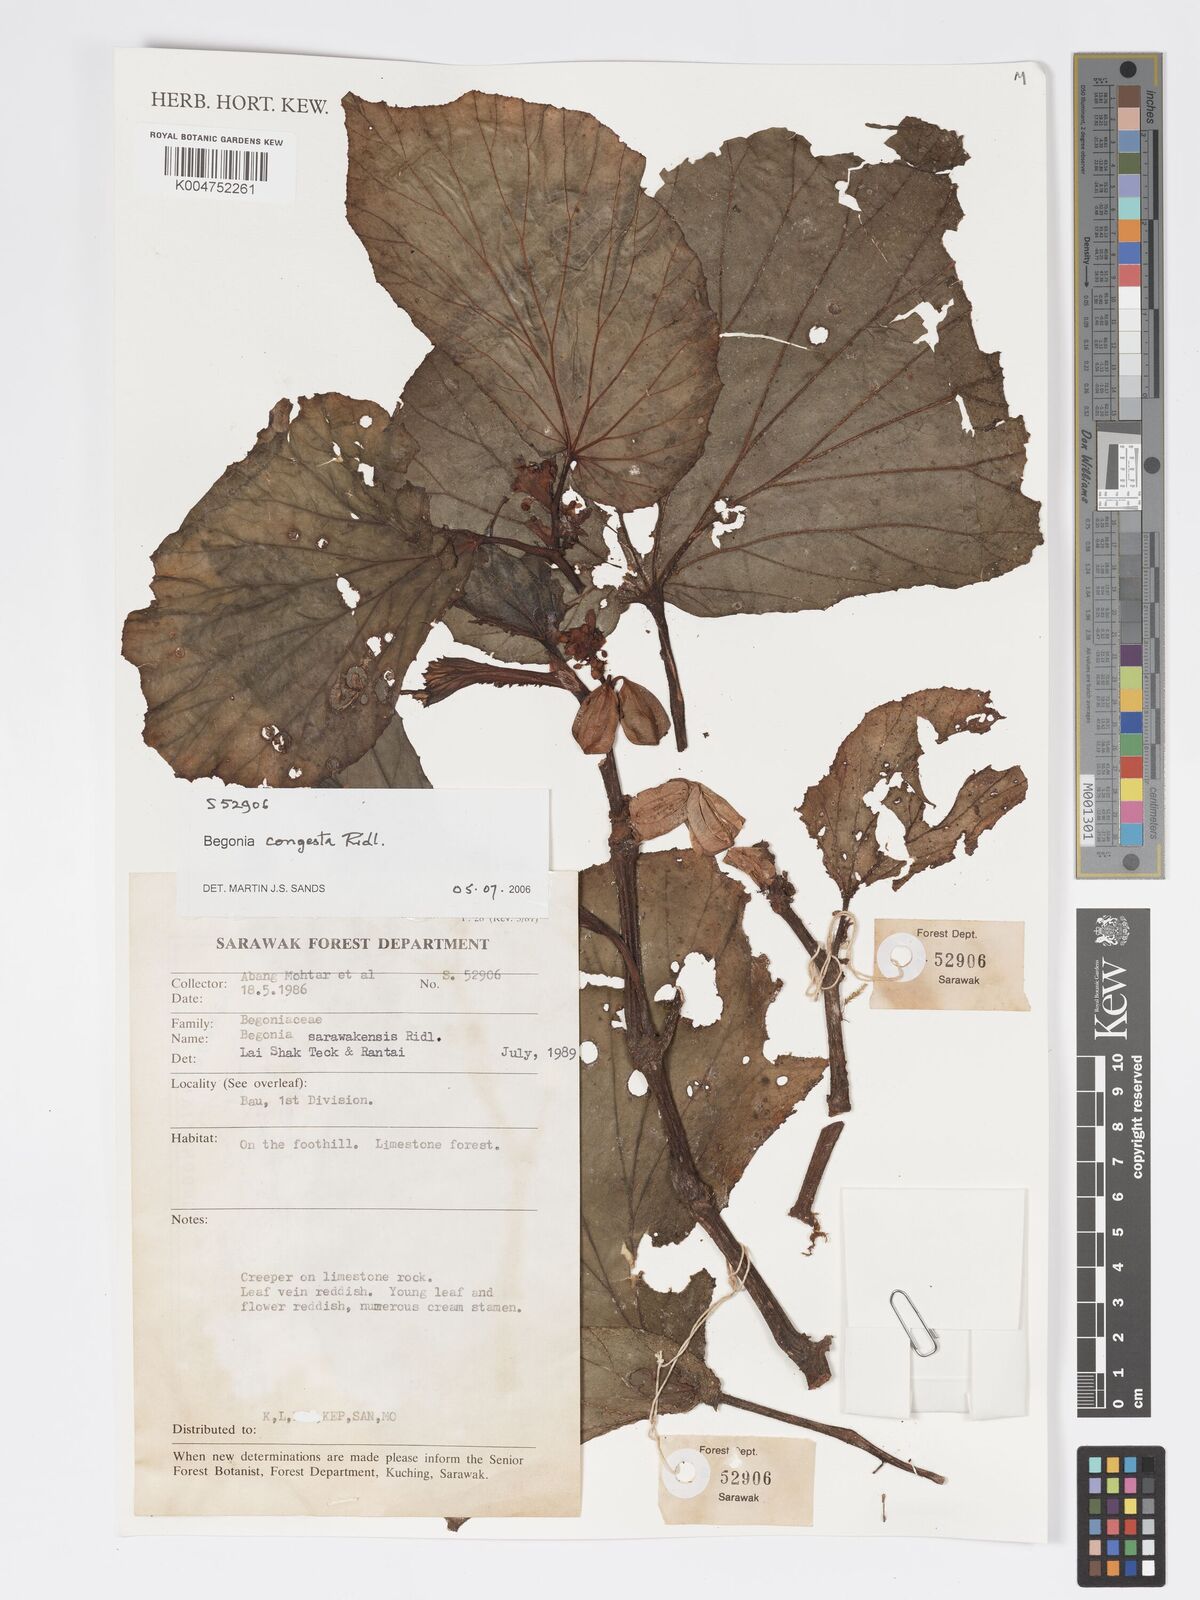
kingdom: Plantae
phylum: Tracheophyta
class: Magnoliopsida
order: Cucurbitales
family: Begoniaceae
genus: Begonia
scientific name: Begonia congesta
